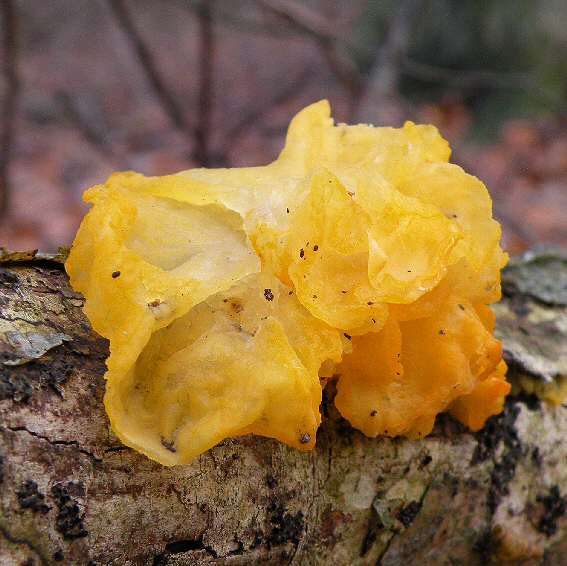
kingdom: Fungi
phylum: Basidiomycota
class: Tremellomycetes
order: Tremellales
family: Tremellaceae
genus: Tremella
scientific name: Tremella mesenterica
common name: gul bævresvamp
